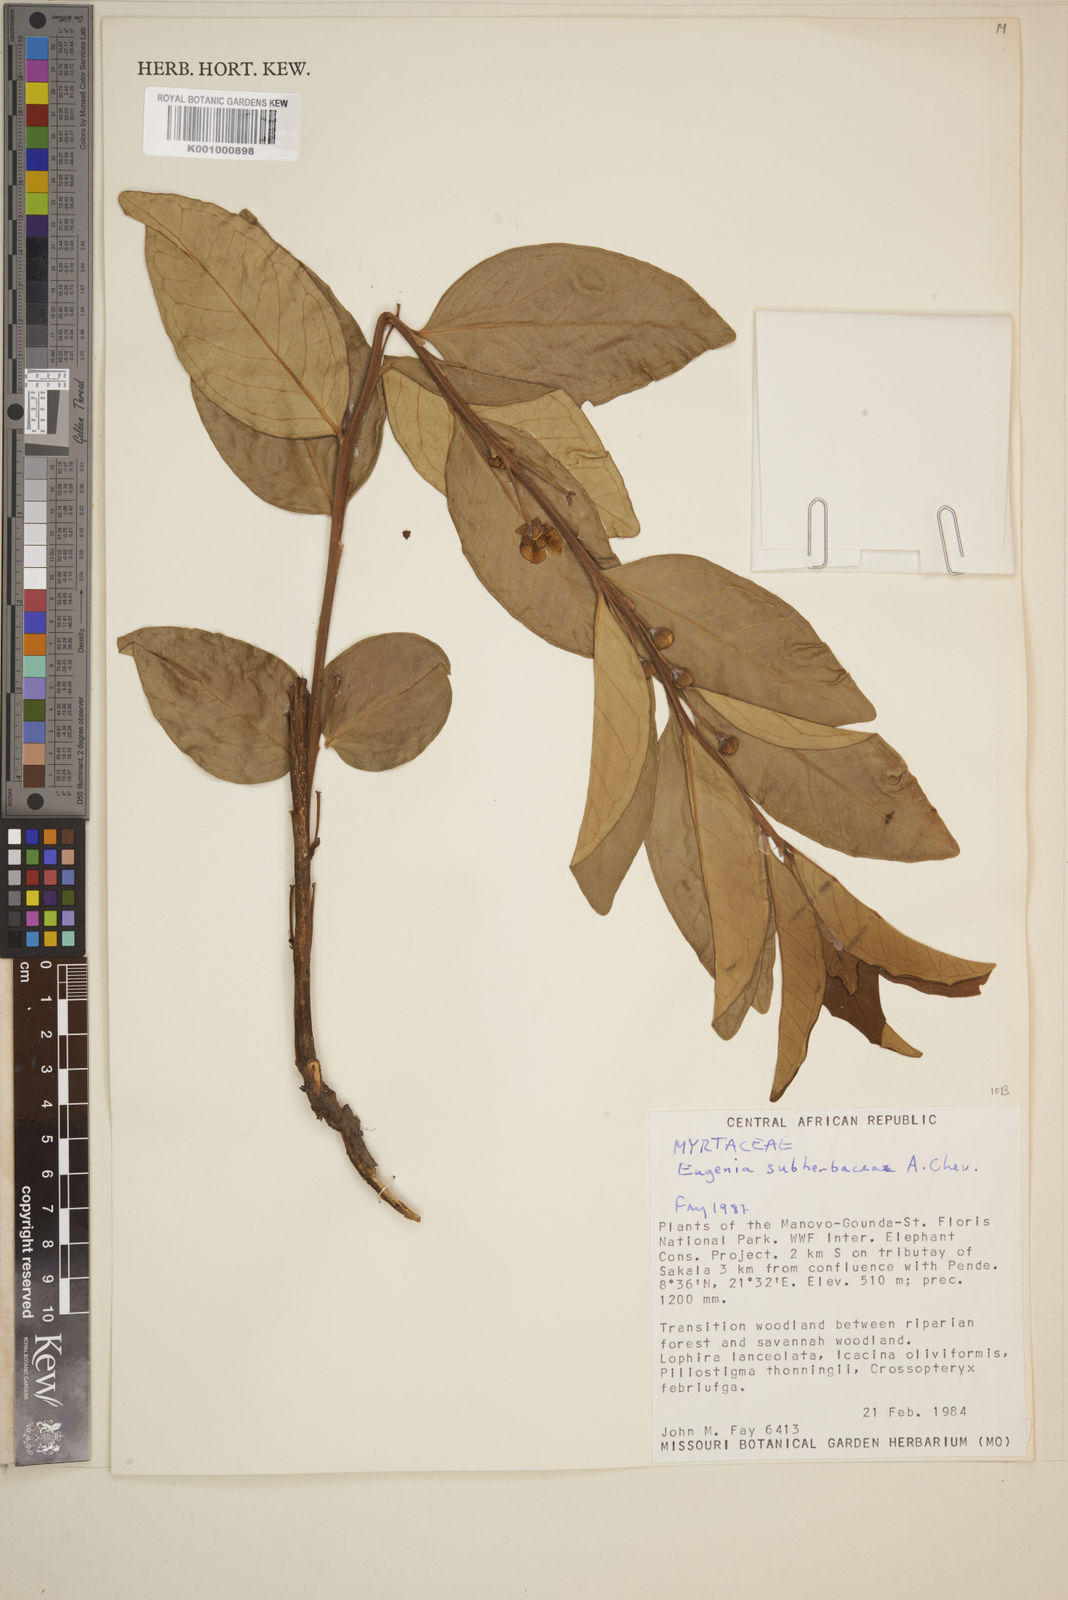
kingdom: Plantae
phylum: Tracheophyta
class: Magnoliopsida
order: Myrtales
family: Myrtaceae
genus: Eugenia
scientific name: Eugenia subherbacea
